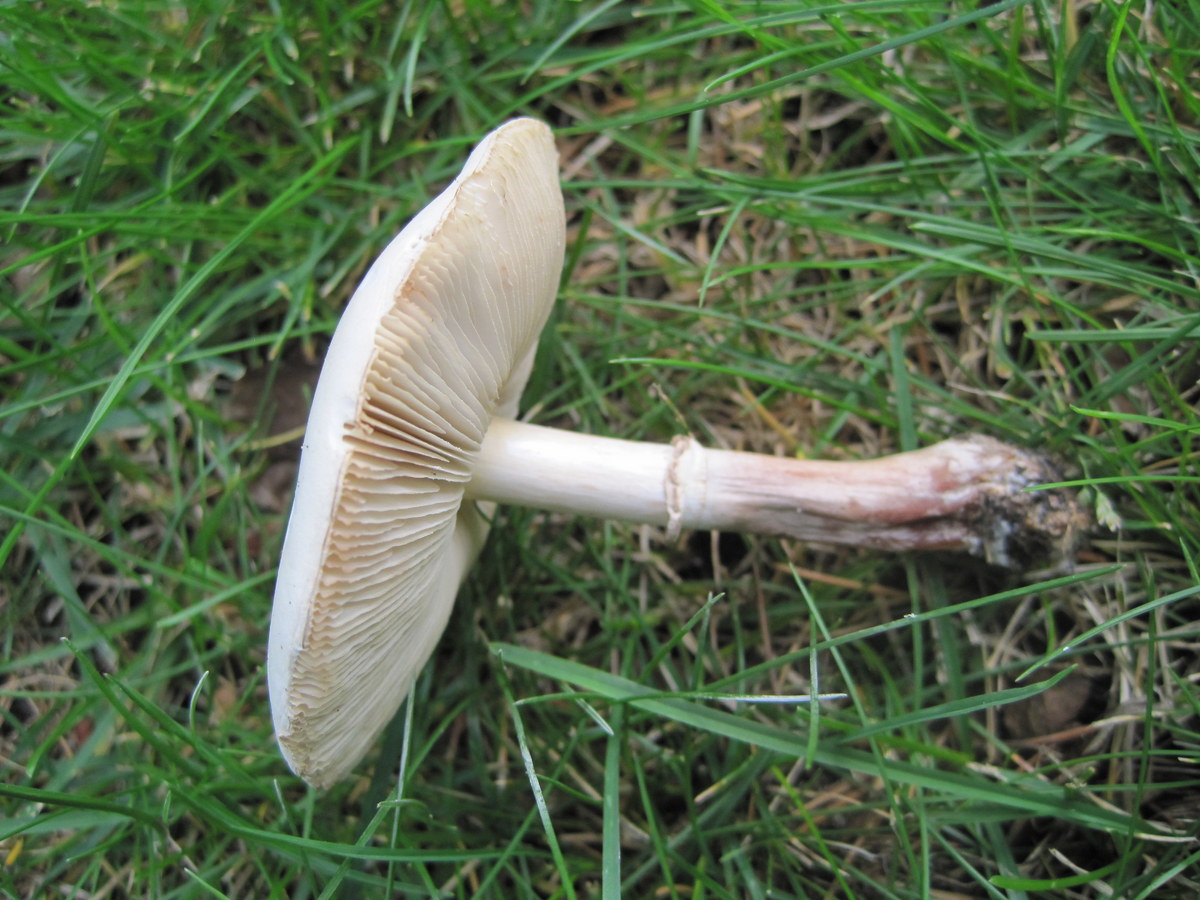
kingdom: Fungi
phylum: Basidiomycota
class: Agaricomycetes
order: Agaricales
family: Agaricaceae
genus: Leucoagaricus
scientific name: Leucoagaricus leucothites
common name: rosabladet silkehat
